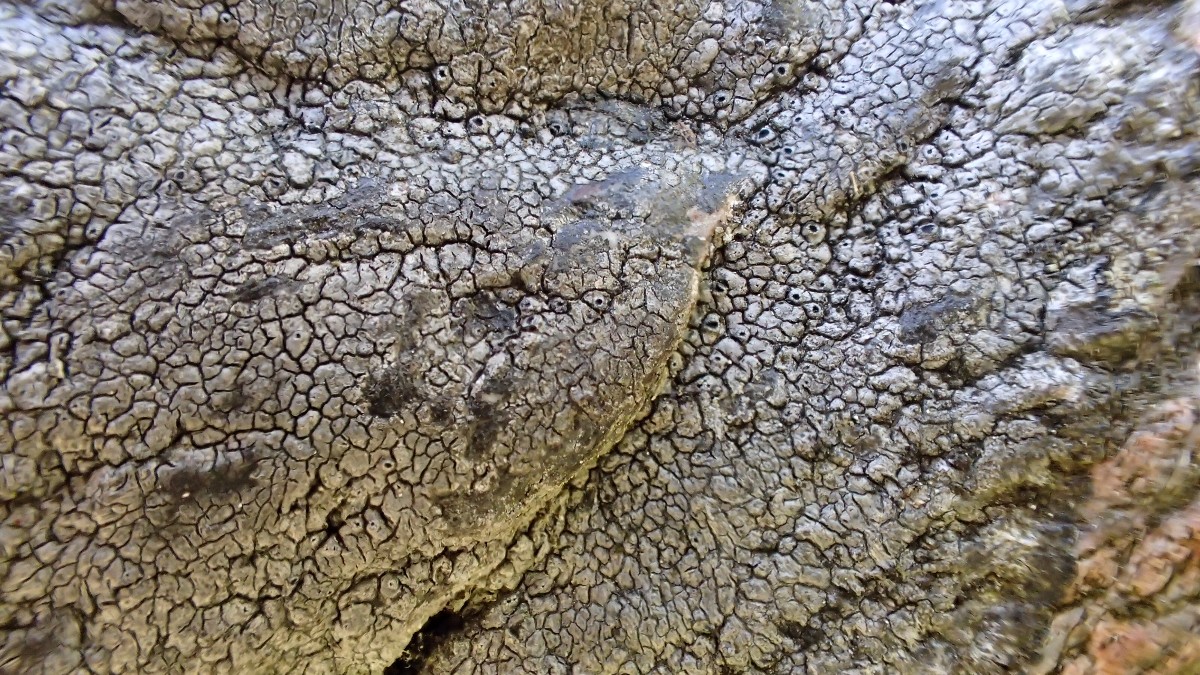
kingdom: Fungi
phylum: Ascomycota
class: Lecanoromycetes
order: Pertusariales
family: Megasporaceae
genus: Circinaria
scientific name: Circinaria caesiocinerea
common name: fuglestens-hulskivelav
